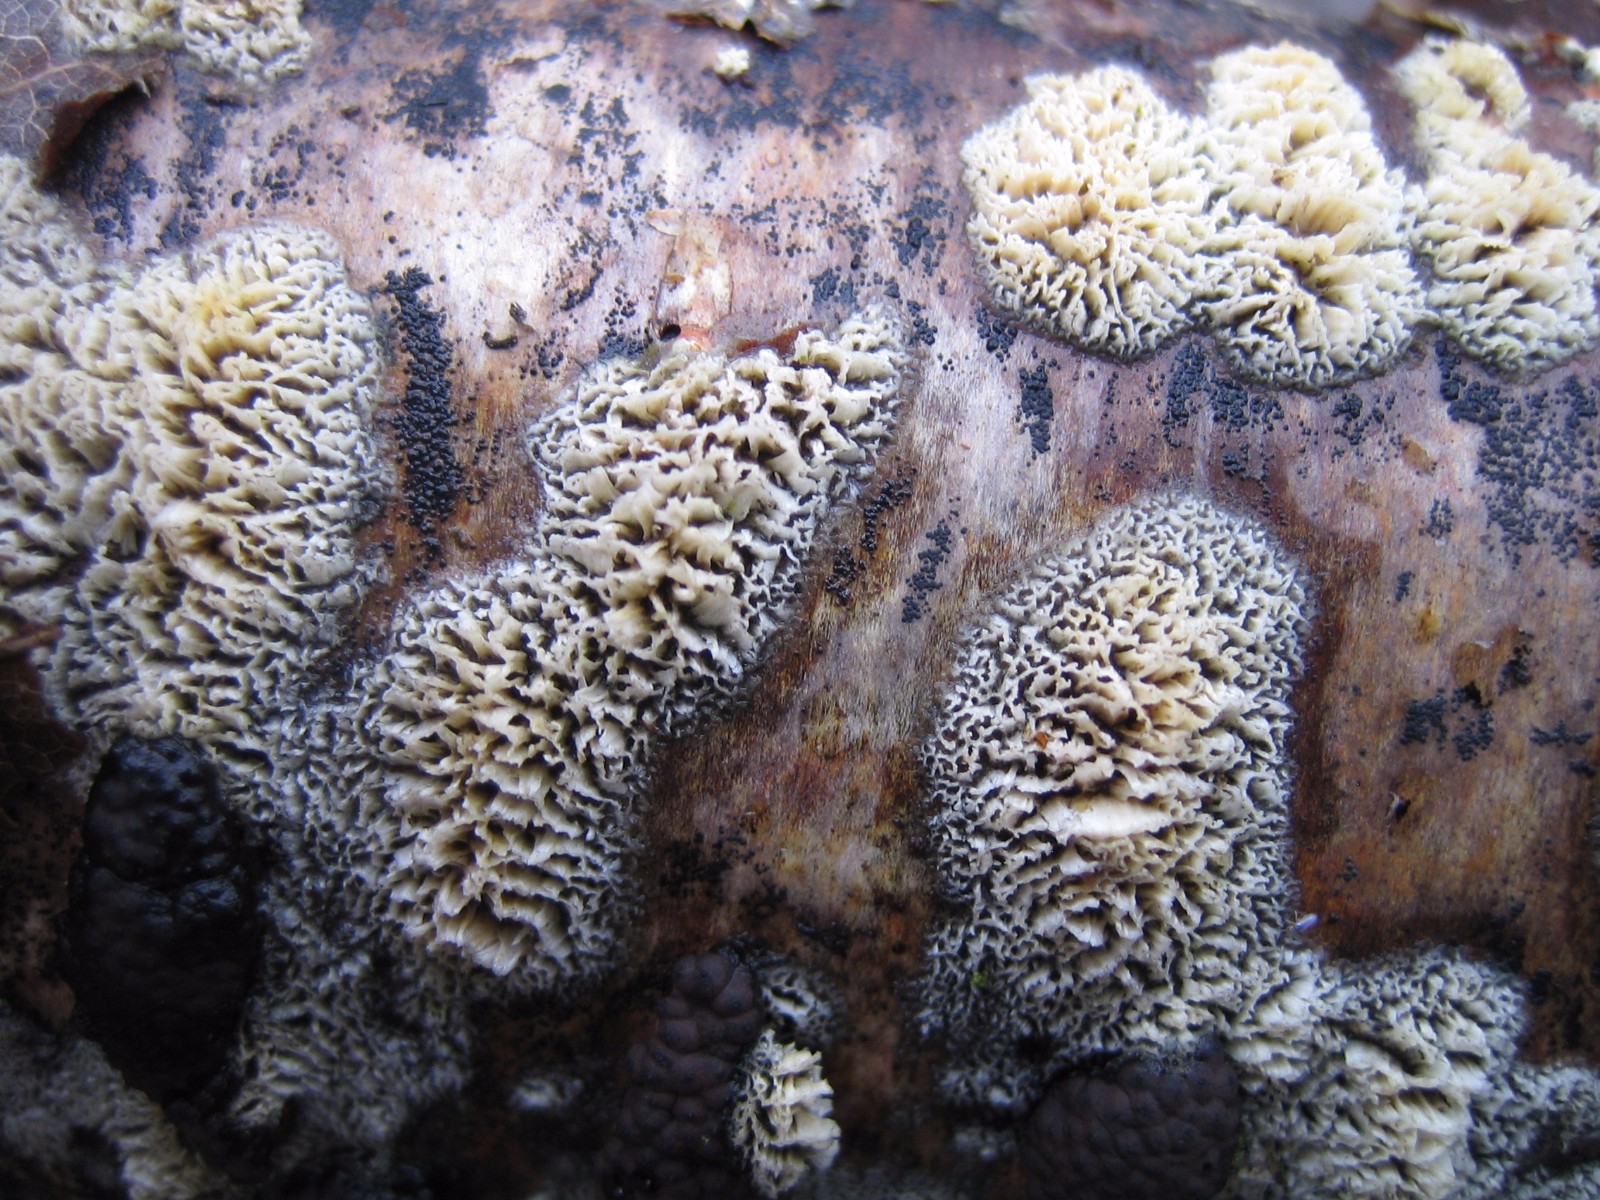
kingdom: Fungi
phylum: Basidiomycota
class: Agaricomycetes
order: Corticiales
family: Corticiaceae
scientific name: Corticiaceae
